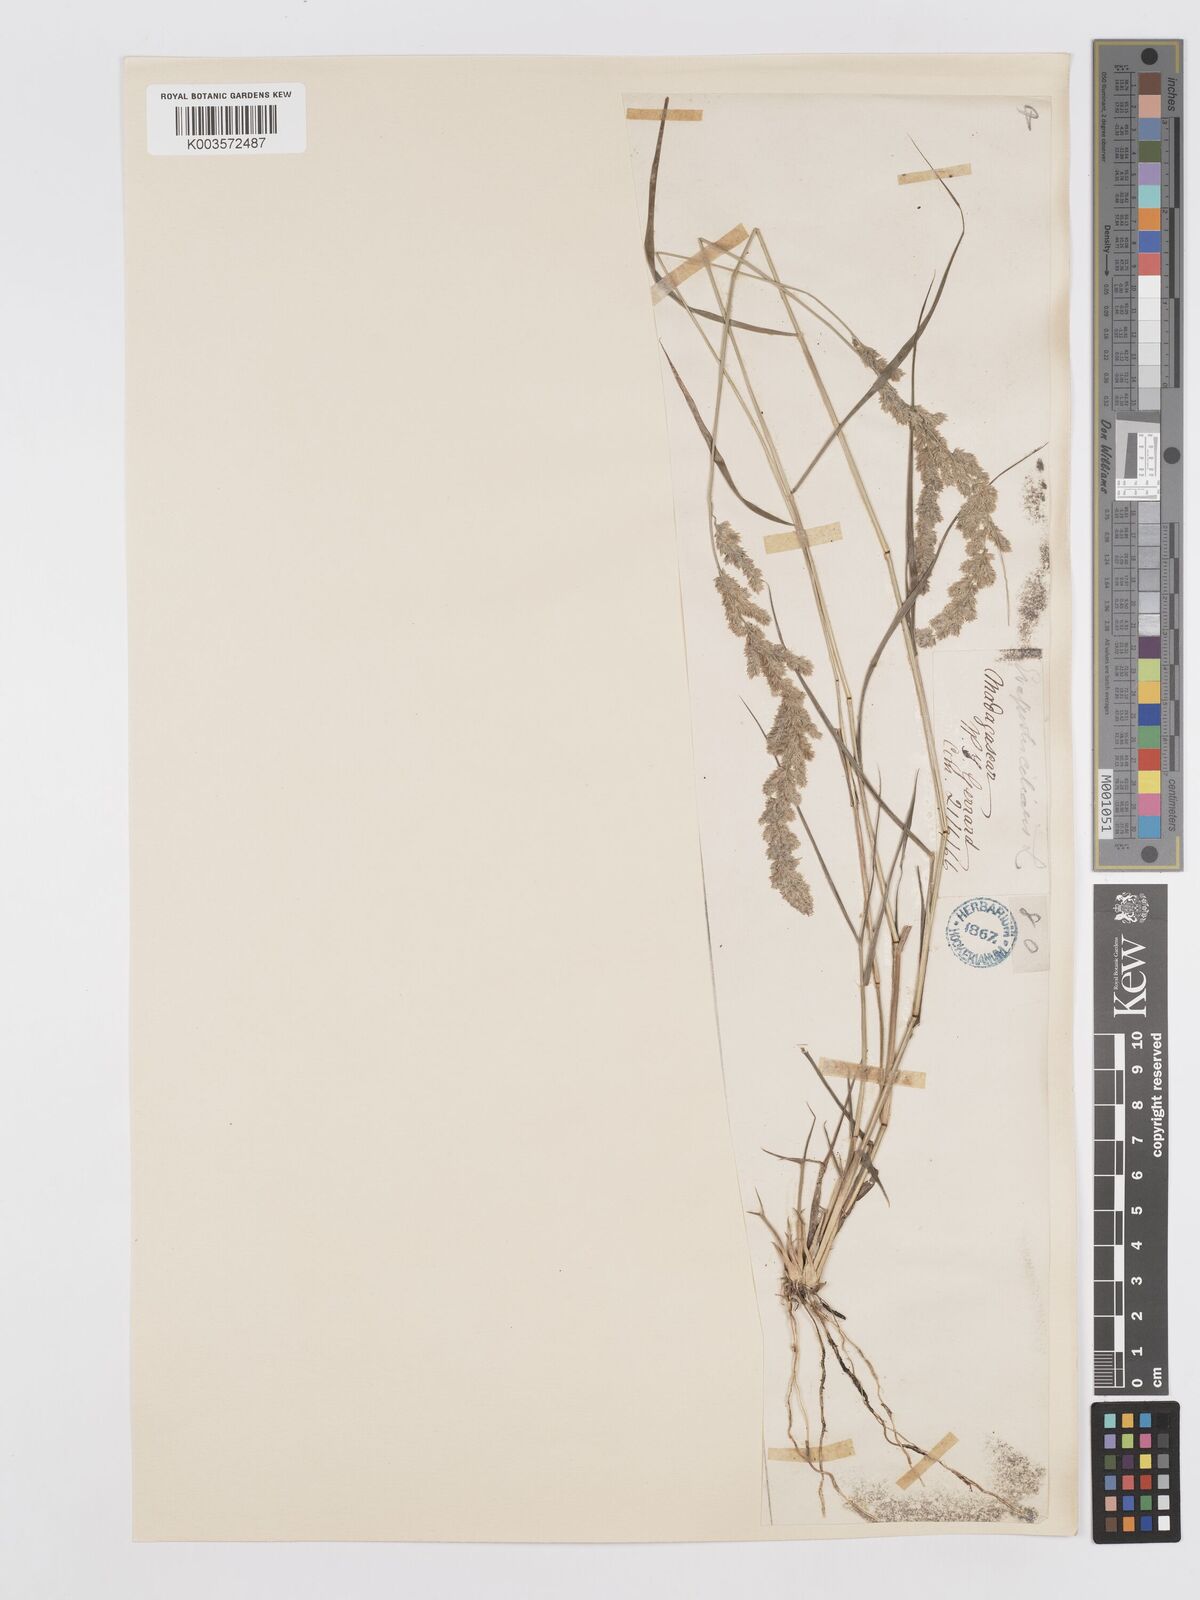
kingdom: Plantae
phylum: Tracheophyta
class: Liliopsida
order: Poales
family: Poaceae
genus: Eragrostis
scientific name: Eragrostis ciliaris
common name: Gophertail lovegrass
